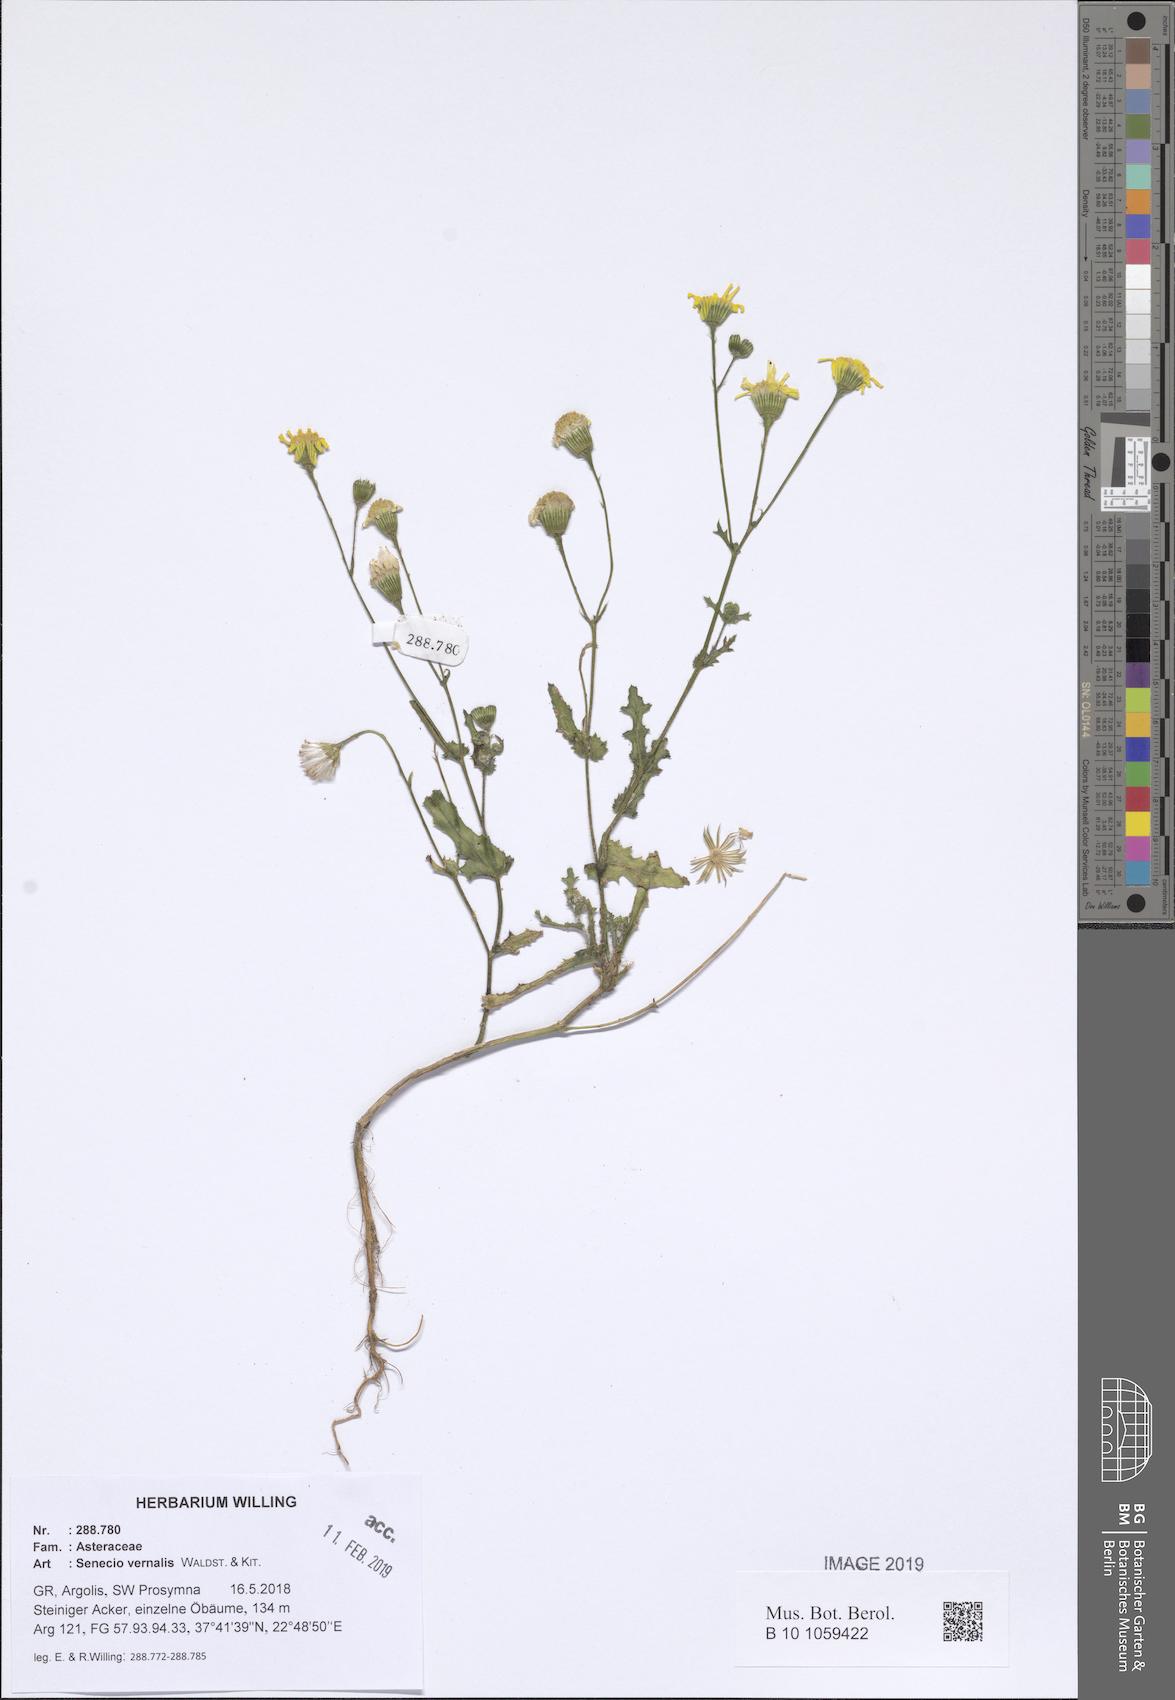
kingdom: Plantae
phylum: Tracheophyta
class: Magnoliopsida
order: Asterales
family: Asteraceae
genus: Senecio
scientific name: Senecio vernalis
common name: Eastern groundsel
